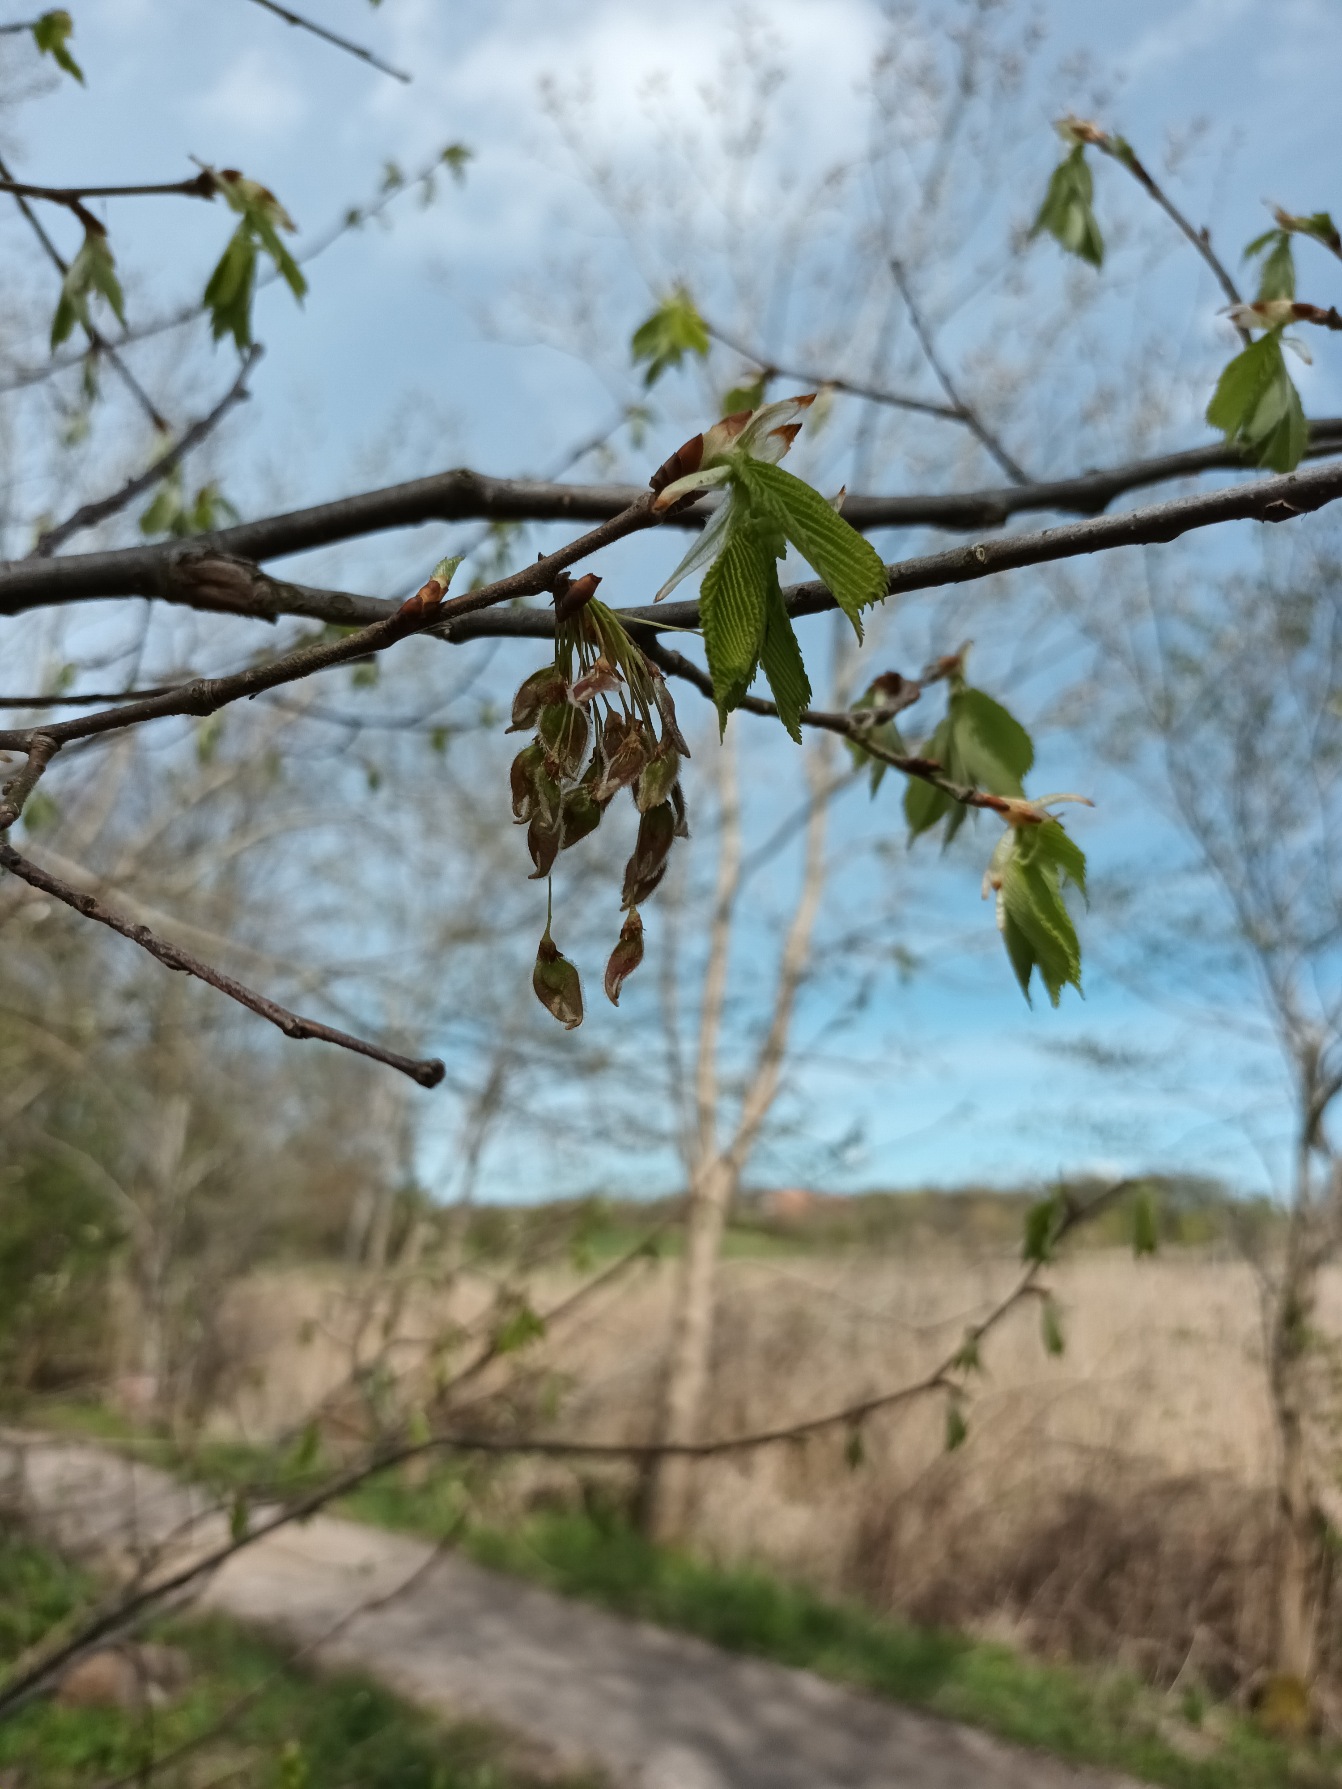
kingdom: Plantae
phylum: Tracheophyta
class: Magnoliopsida
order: Rosales
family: Ulmaceae
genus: Ulmus
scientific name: Ulmus laevis
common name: Skærm-elm
